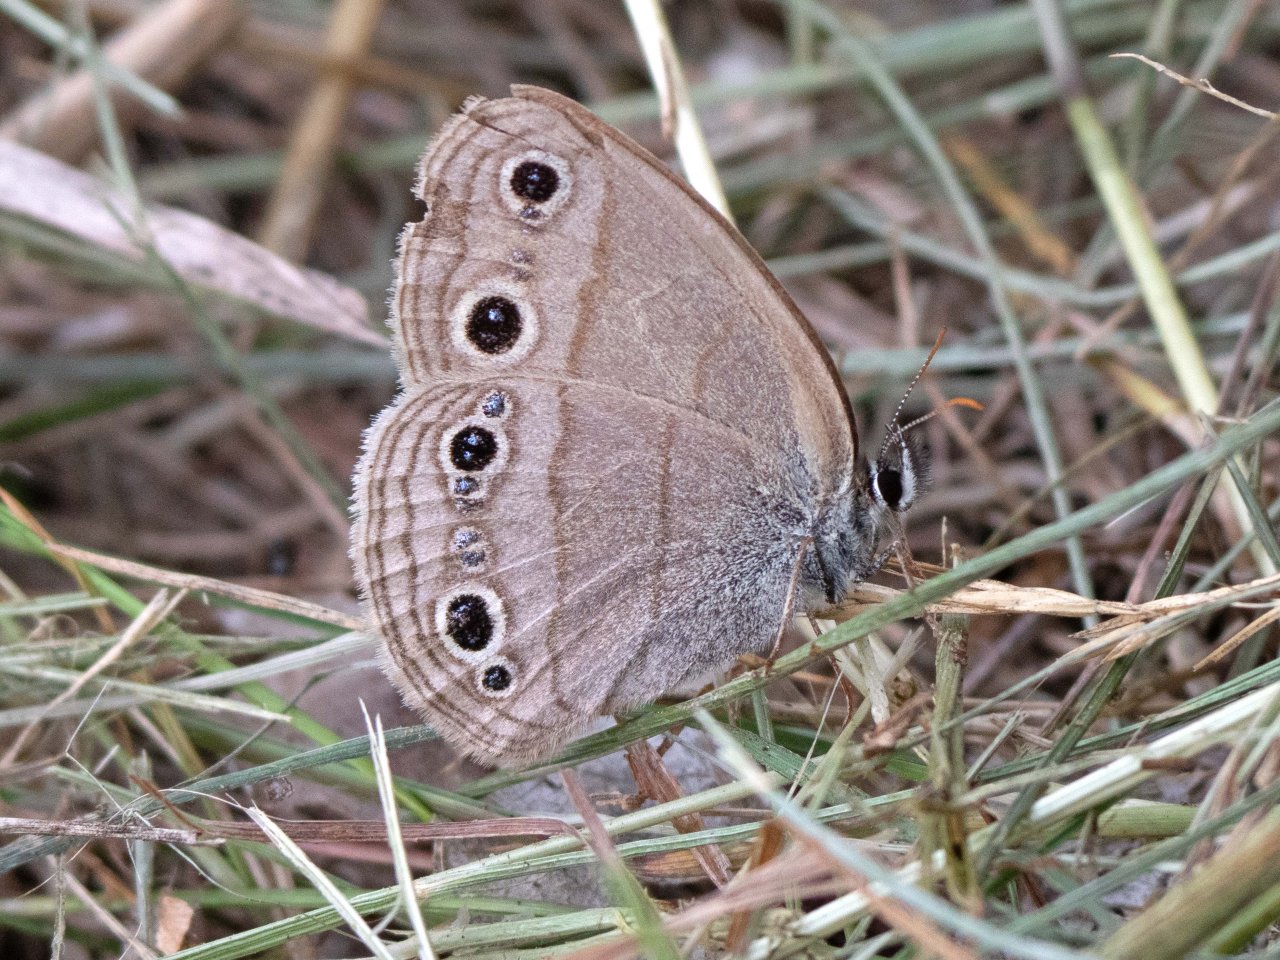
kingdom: Animalia
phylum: Arthropoda
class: Insecta
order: Lepidoptera
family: Nymphalidae
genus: Euptychia
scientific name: Euptychia cymela
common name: Little Wood Satyr
